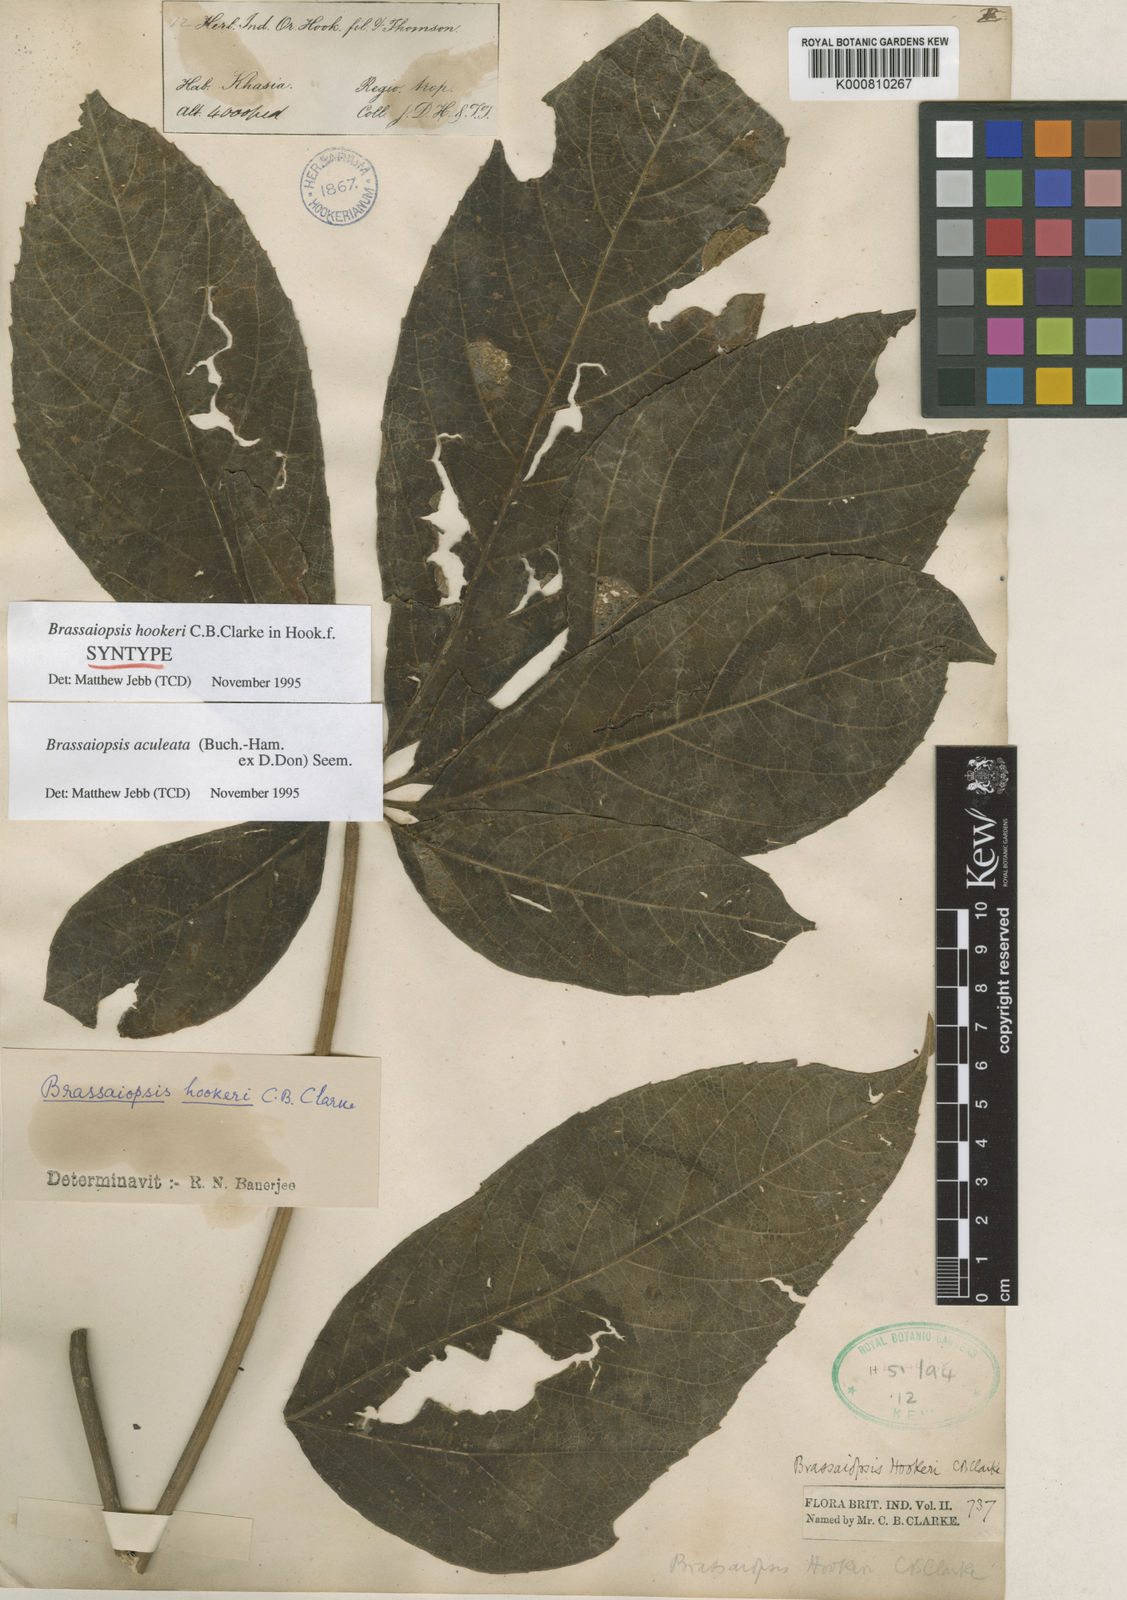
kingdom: Plantae
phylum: Tracheophyta
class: Magnoliopsida
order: Apiales
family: Araliaceae
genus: Brassaiopsis
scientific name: Brassaiopsis aculeata
